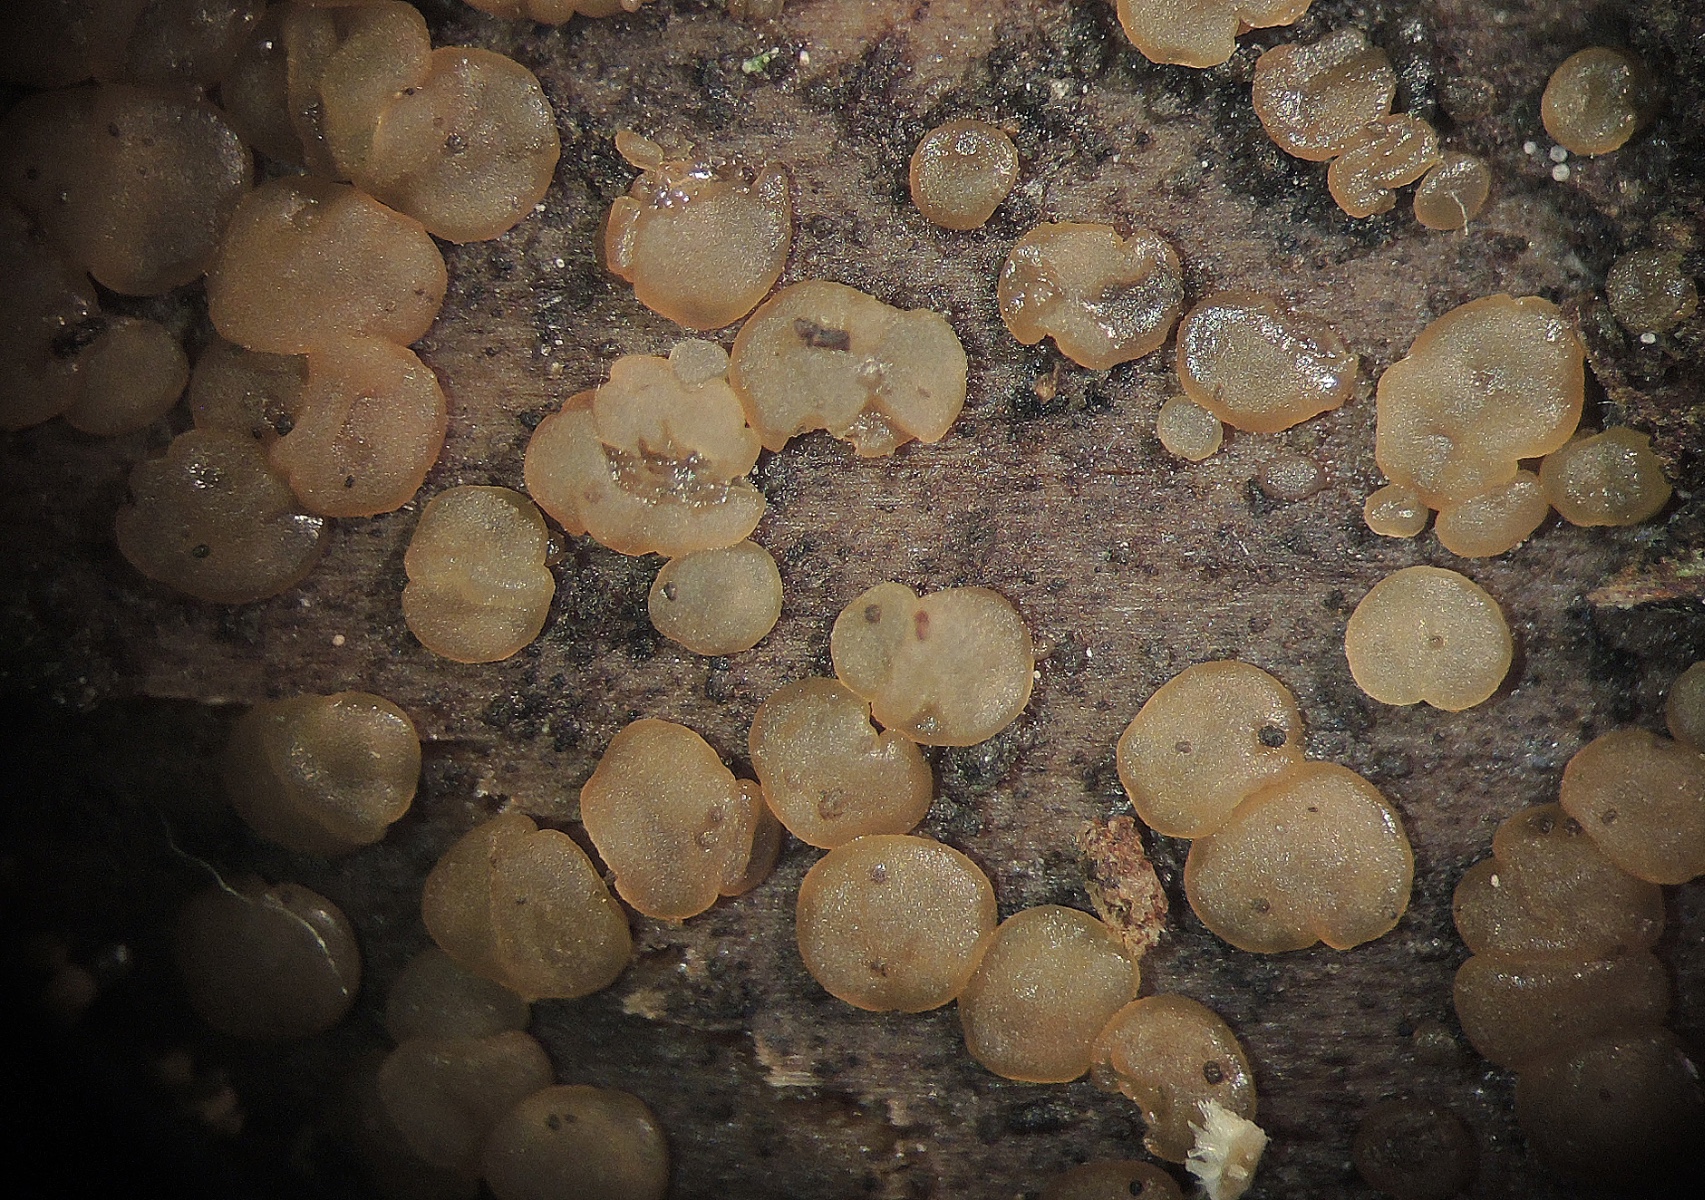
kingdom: Fungi
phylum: Basidiomycota
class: Dacrymycetes
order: Dacrymycetales
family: Dacryonaemataceae
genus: Dacryonaema
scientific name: Dacryonaema macnabbii
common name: navle-tåresvamp
